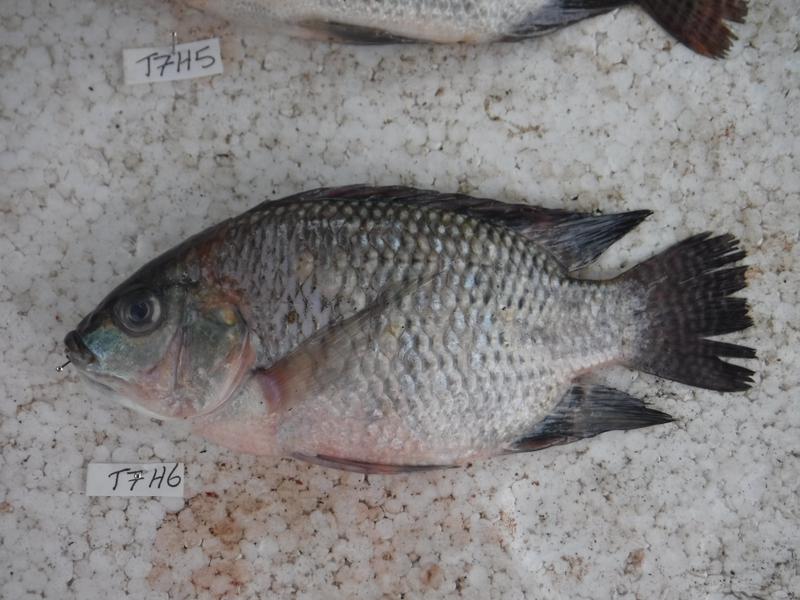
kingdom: Animalia
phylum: Chordata
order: Perciformes
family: Cichlidae
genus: Oreochromis
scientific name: Oreochromis niloticus
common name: Nile tilapia
